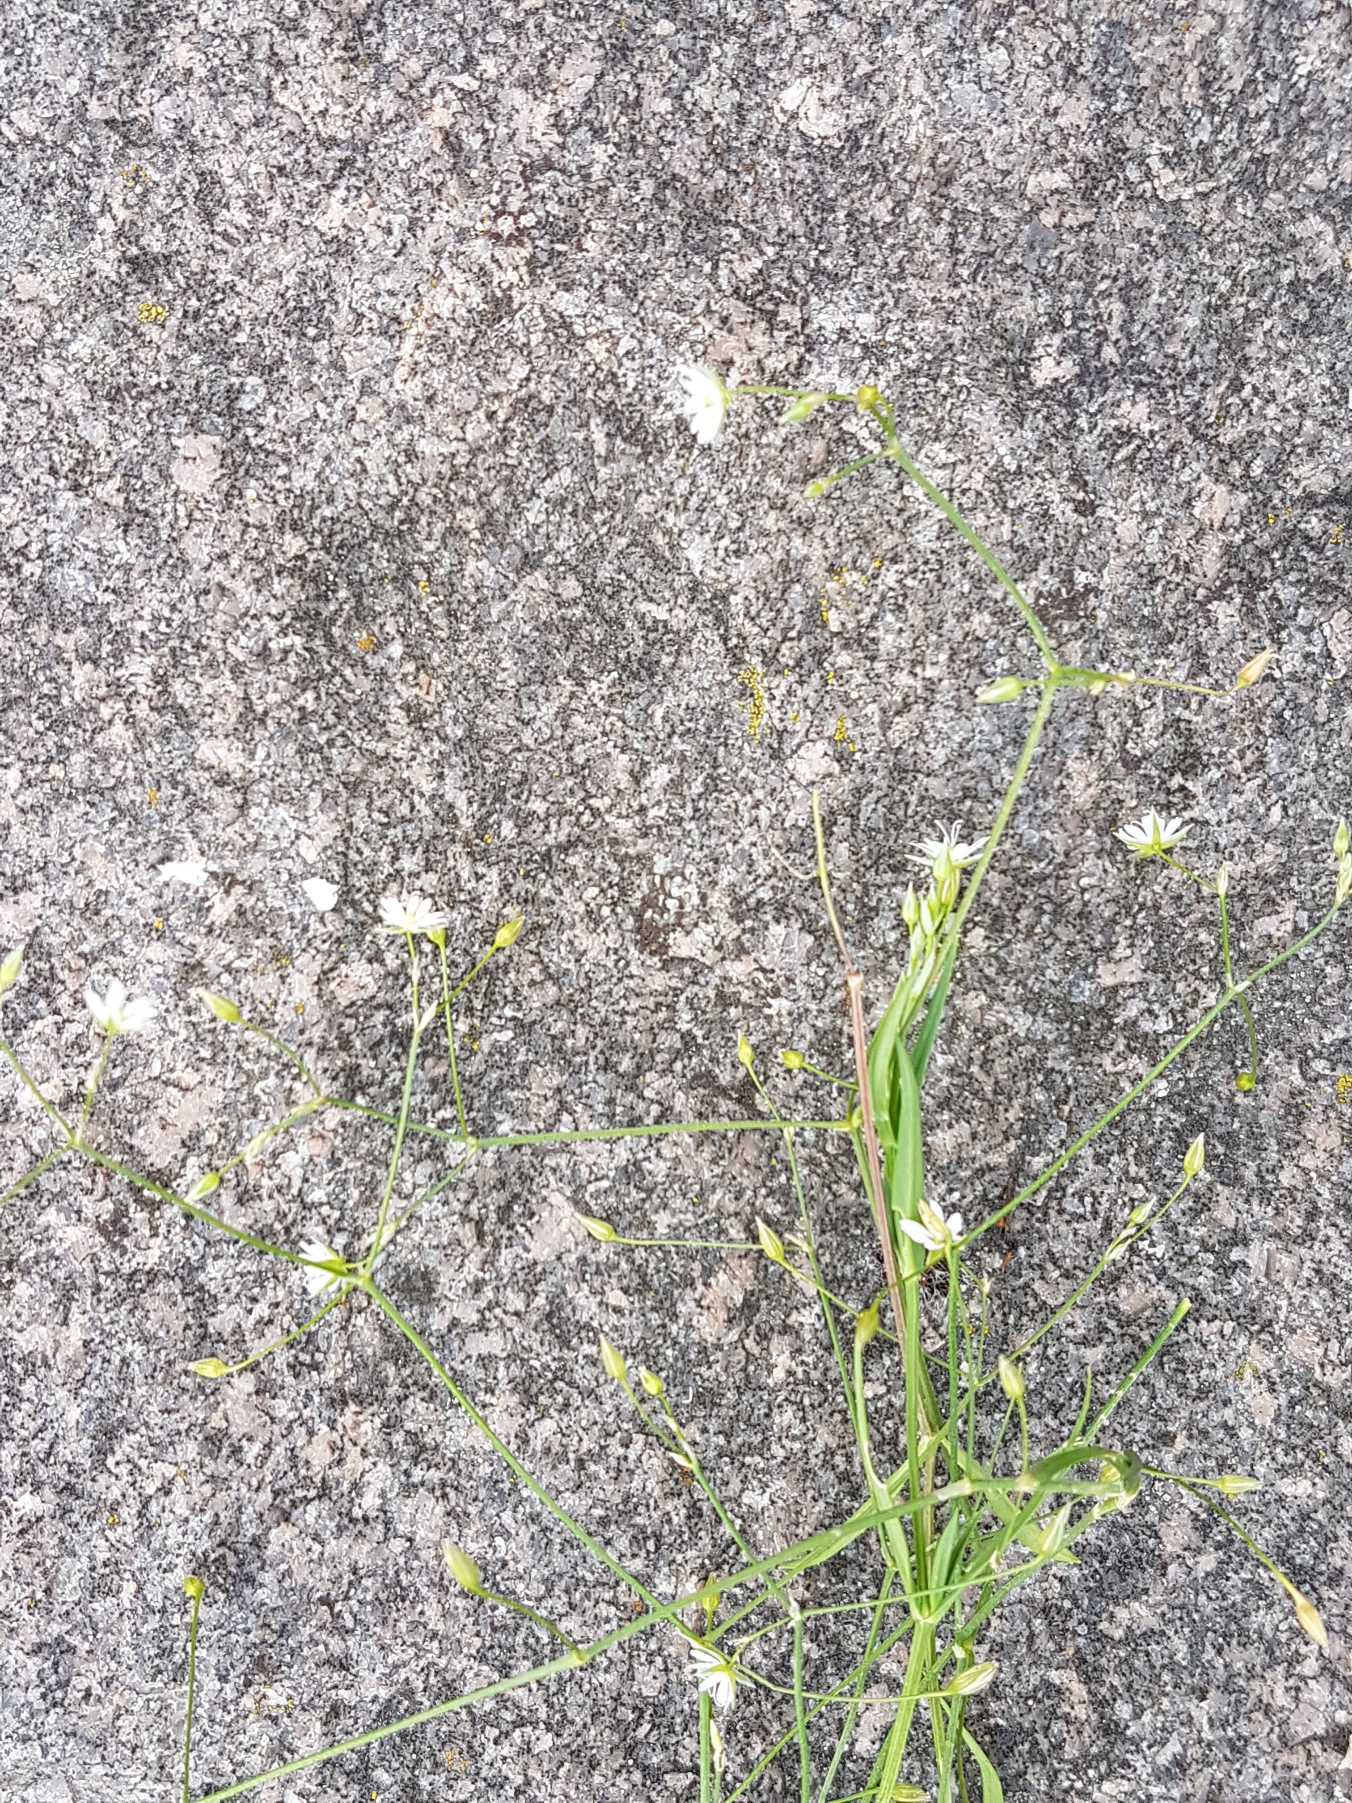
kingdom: Plantae
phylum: Tracheophyta
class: Magnoliopsida
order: Caryophyllales
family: Caryophyllaceae
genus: Stellaria
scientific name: Stellaria graminea
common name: Græsbladet fladstjerne
